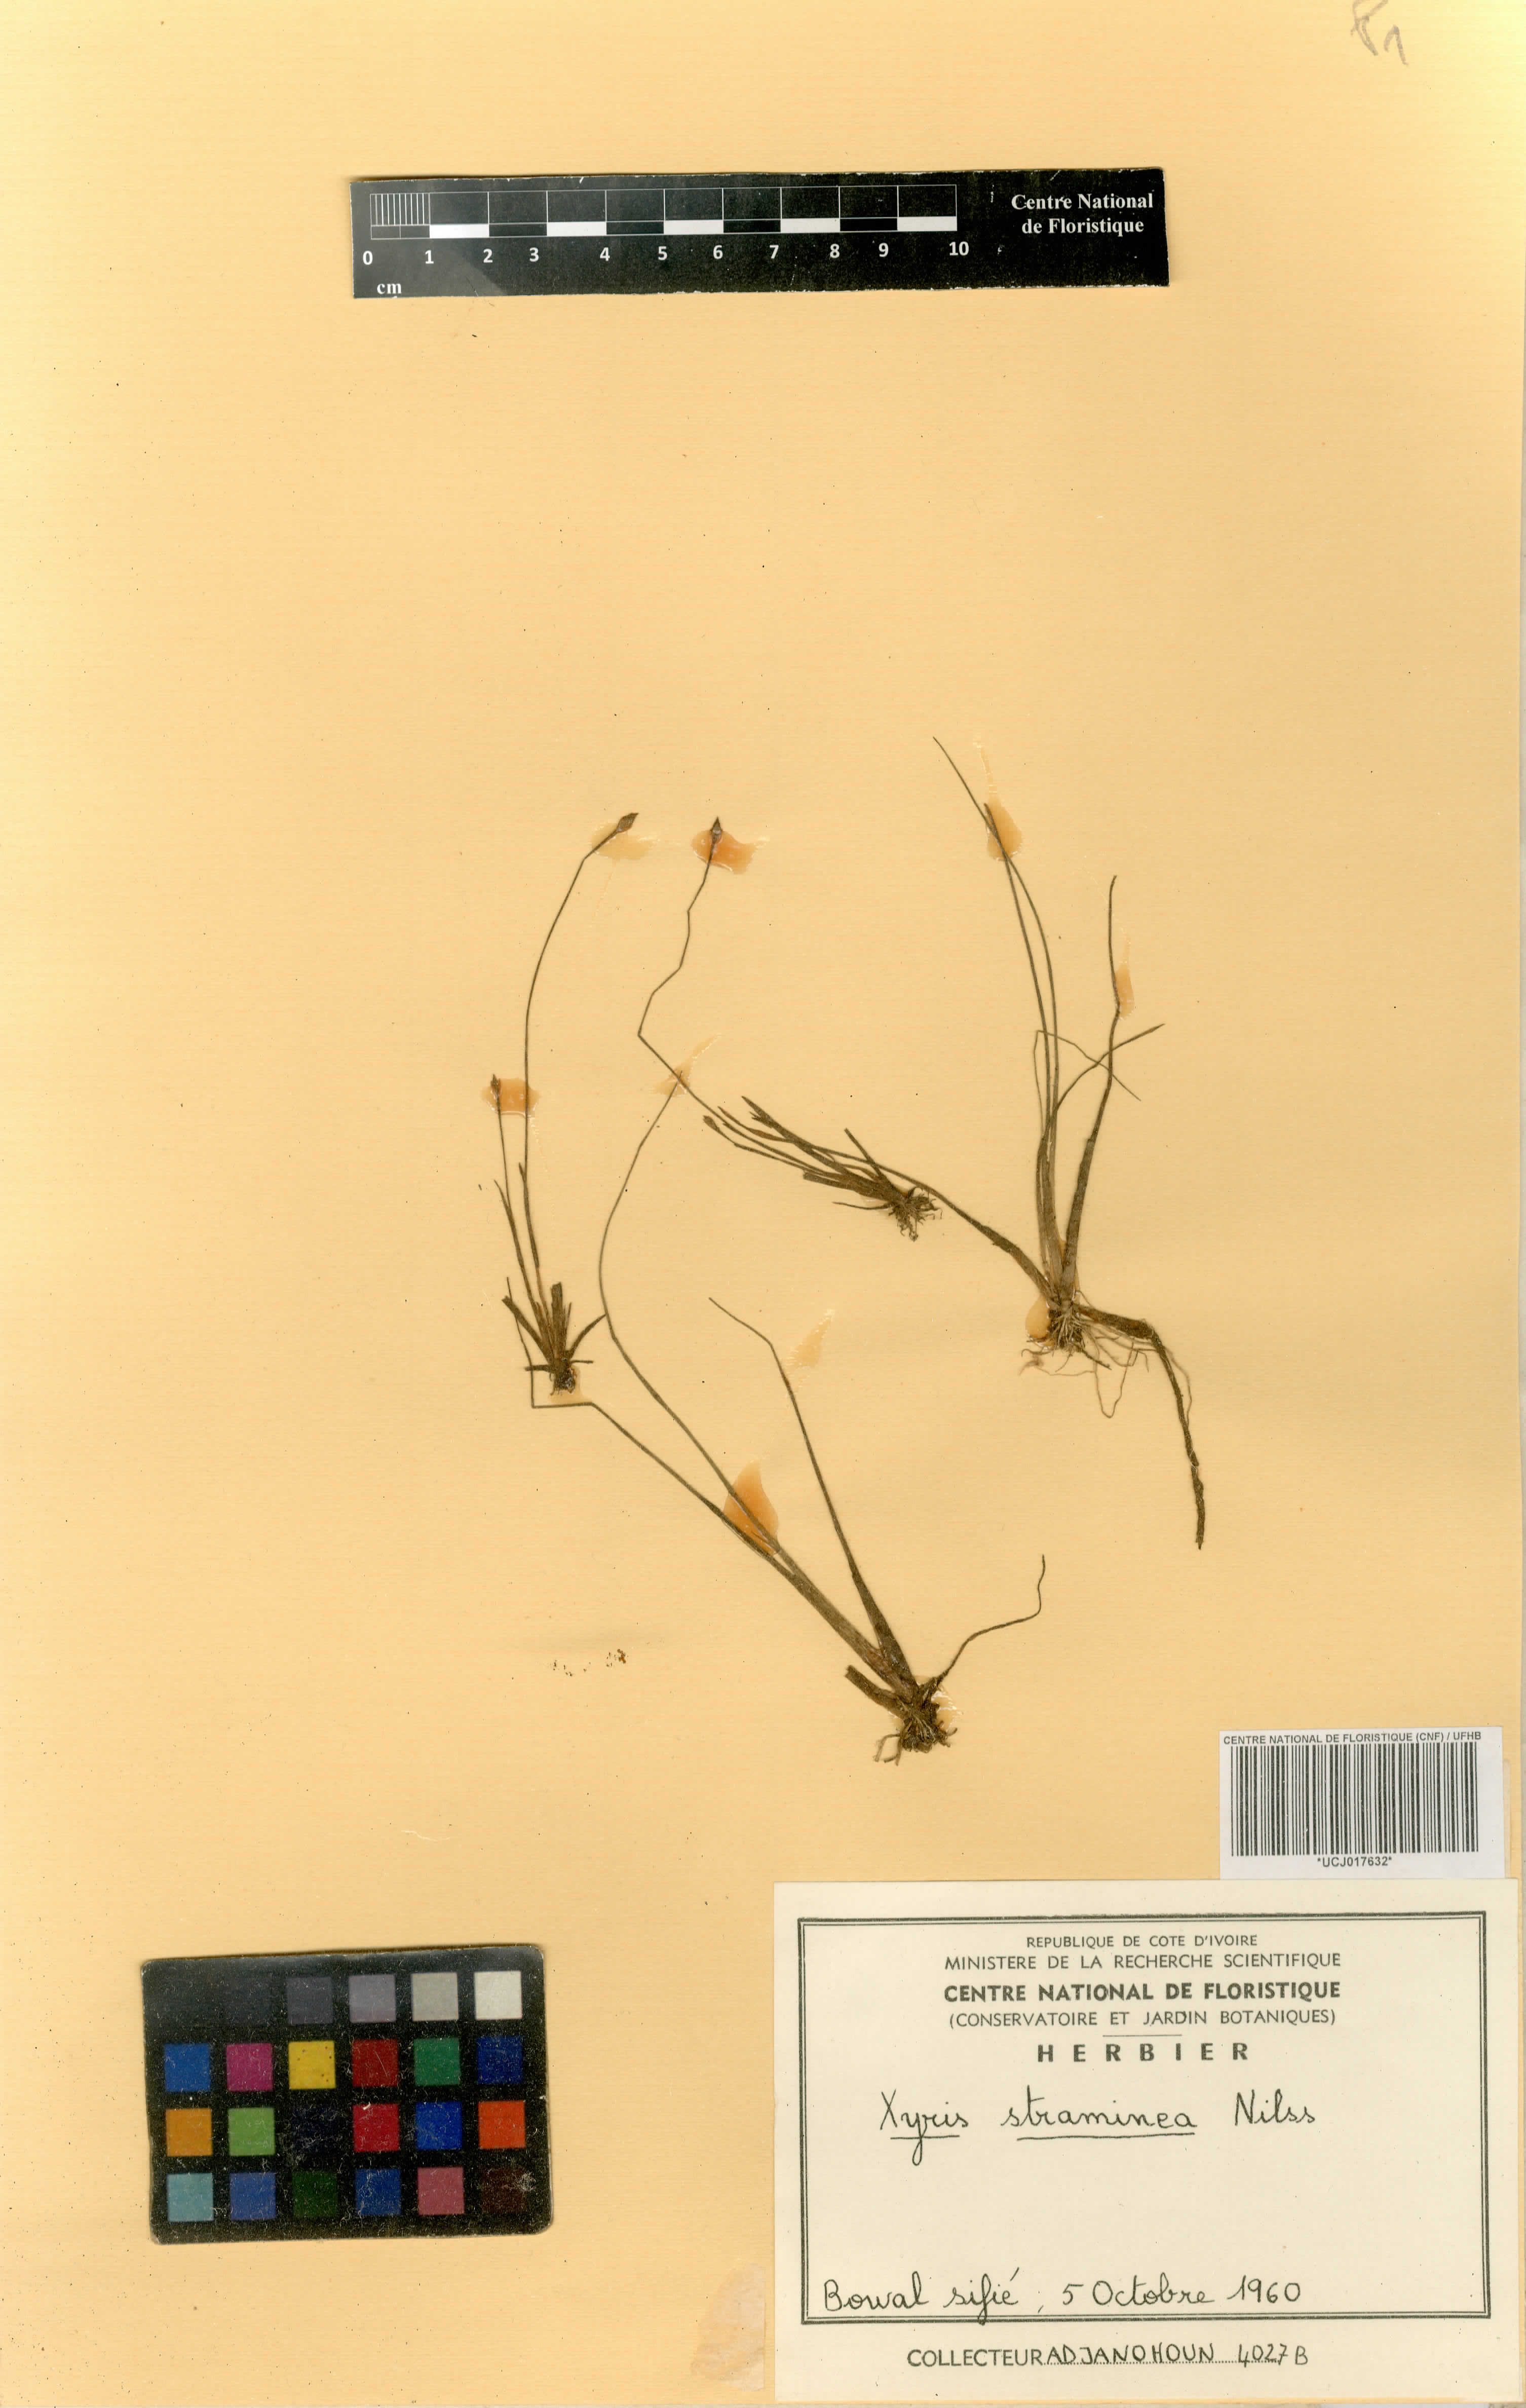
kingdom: Plantae
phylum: Tracheophyta
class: Liliopsida
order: Poales
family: Xyridaceae
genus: Xyris
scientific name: Xyris straminea
